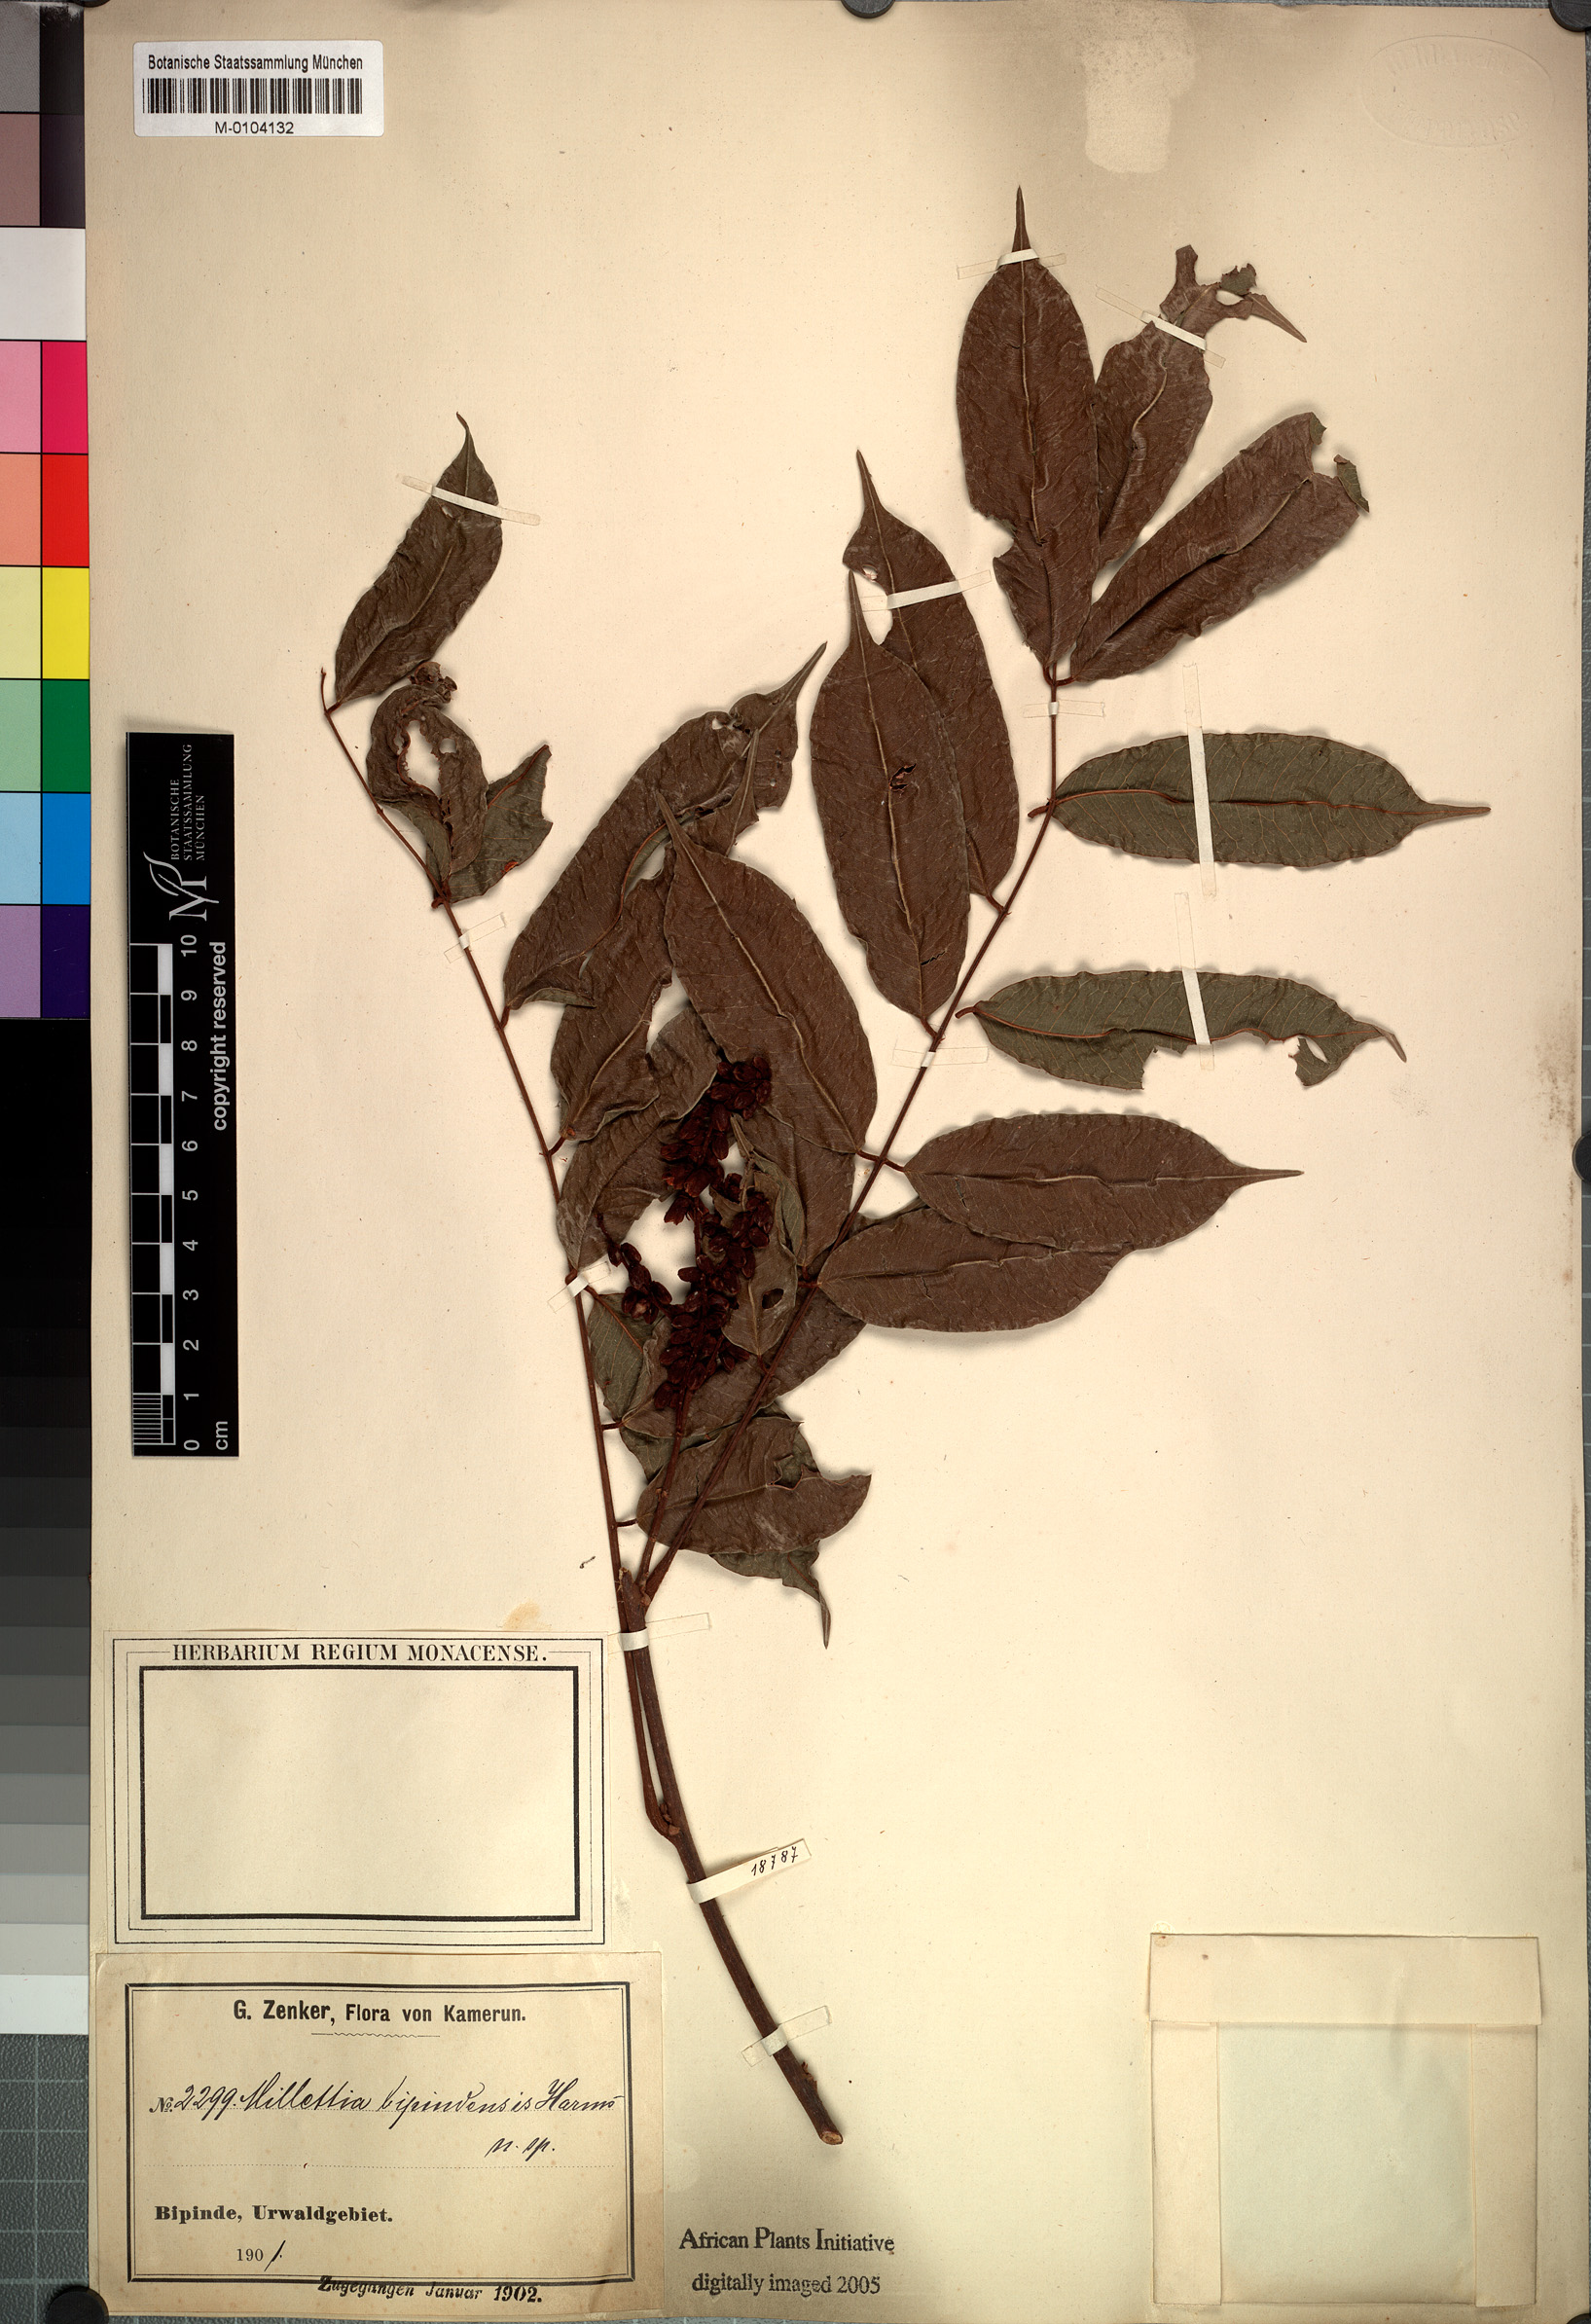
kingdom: Plantae
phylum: Tracheophyta
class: Magnoliopsida
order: Fabales
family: Fabaceae
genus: Millettia
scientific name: Millettia bipindensis
